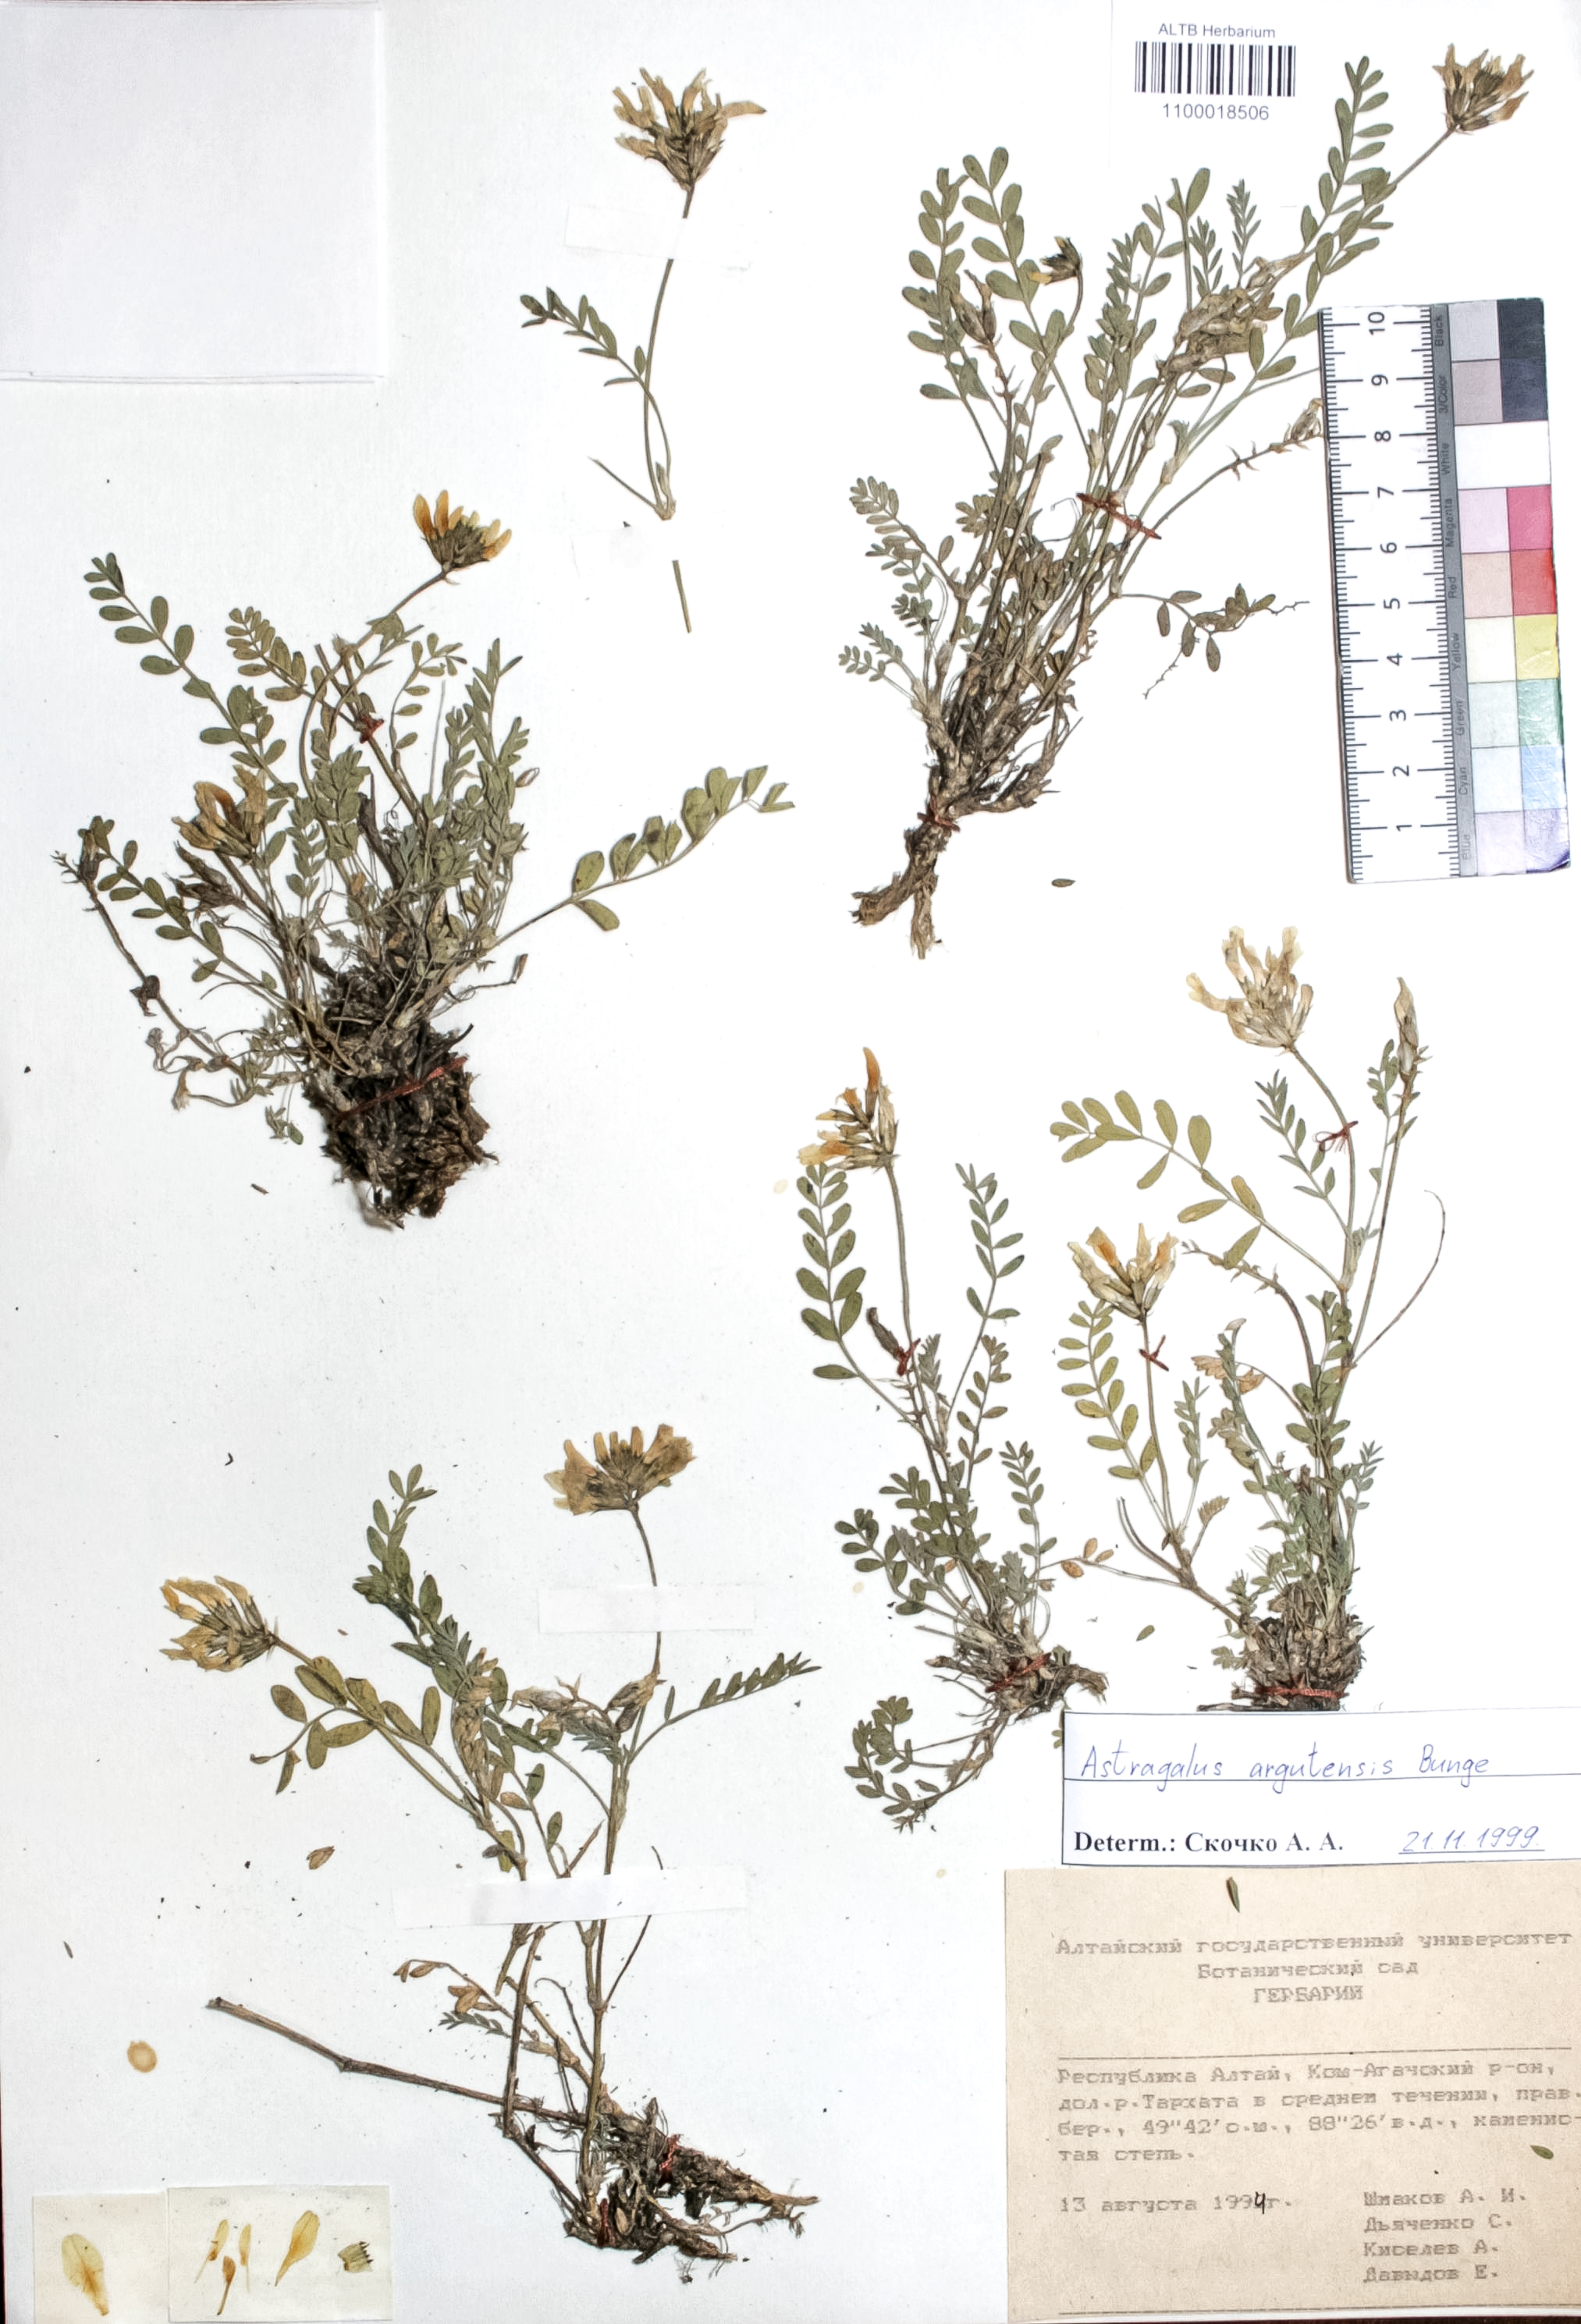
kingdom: Plantae
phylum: Tracheophyta
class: Magnoliopsida
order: Fabales
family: Fabaceae
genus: Astragalus
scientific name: Astragalus argutensis
